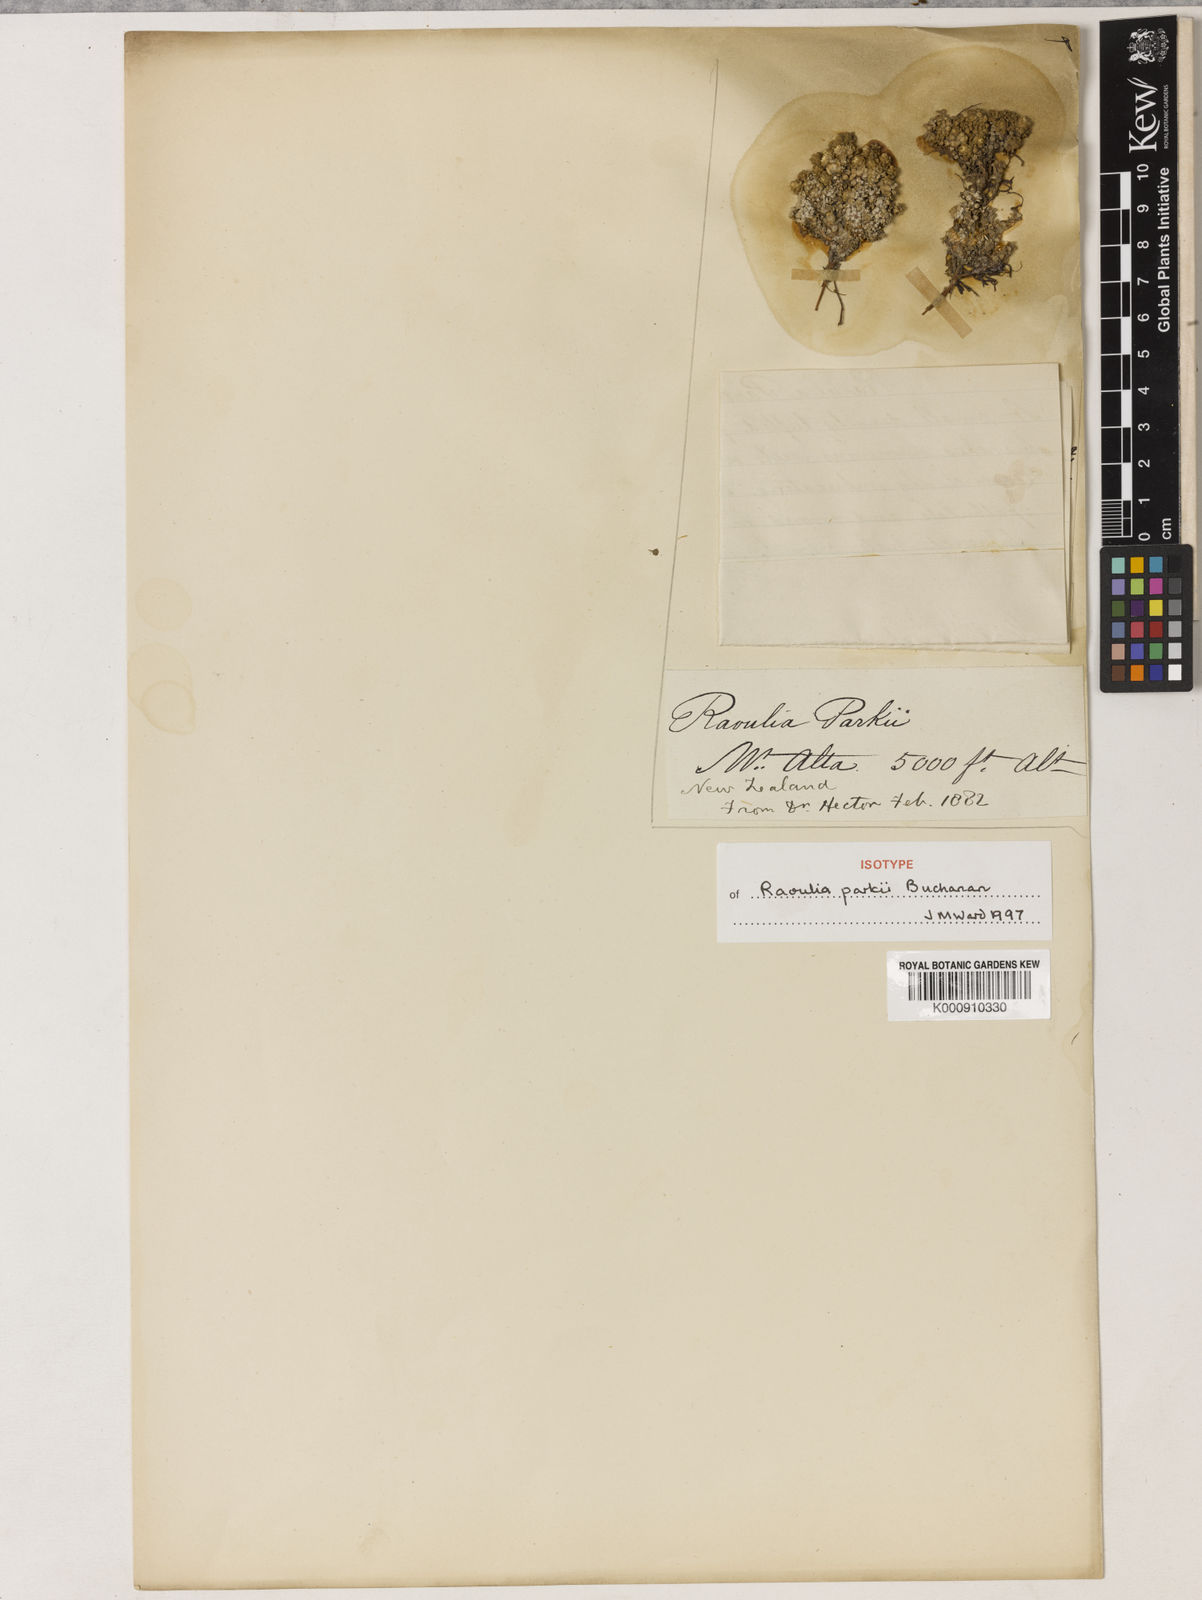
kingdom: Plantae
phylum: Tracheophyta
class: Magnoliopsida
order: Asterales
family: Asteraceae
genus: Raoulia
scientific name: Raoulia parkii
